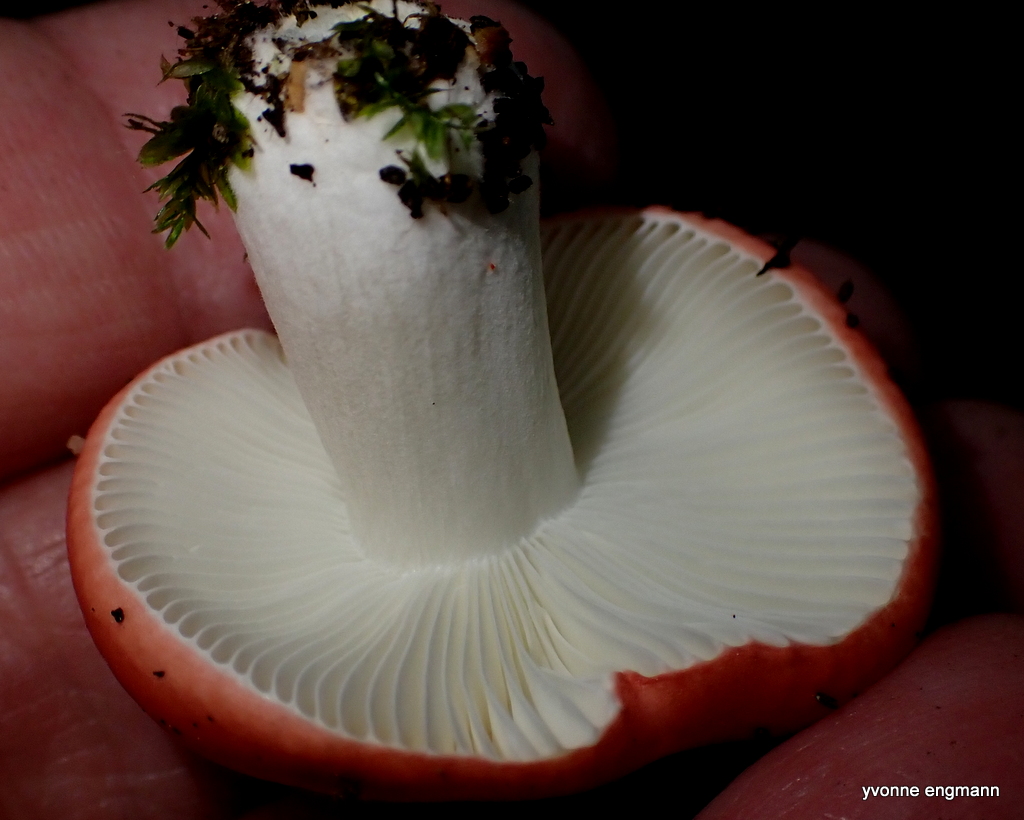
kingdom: Fungi
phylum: Basidiomycota
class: Agaricomycetes
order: Russulales
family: Russulaceae
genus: Russula
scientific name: Russula nobilis
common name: lille gift-skørhat
